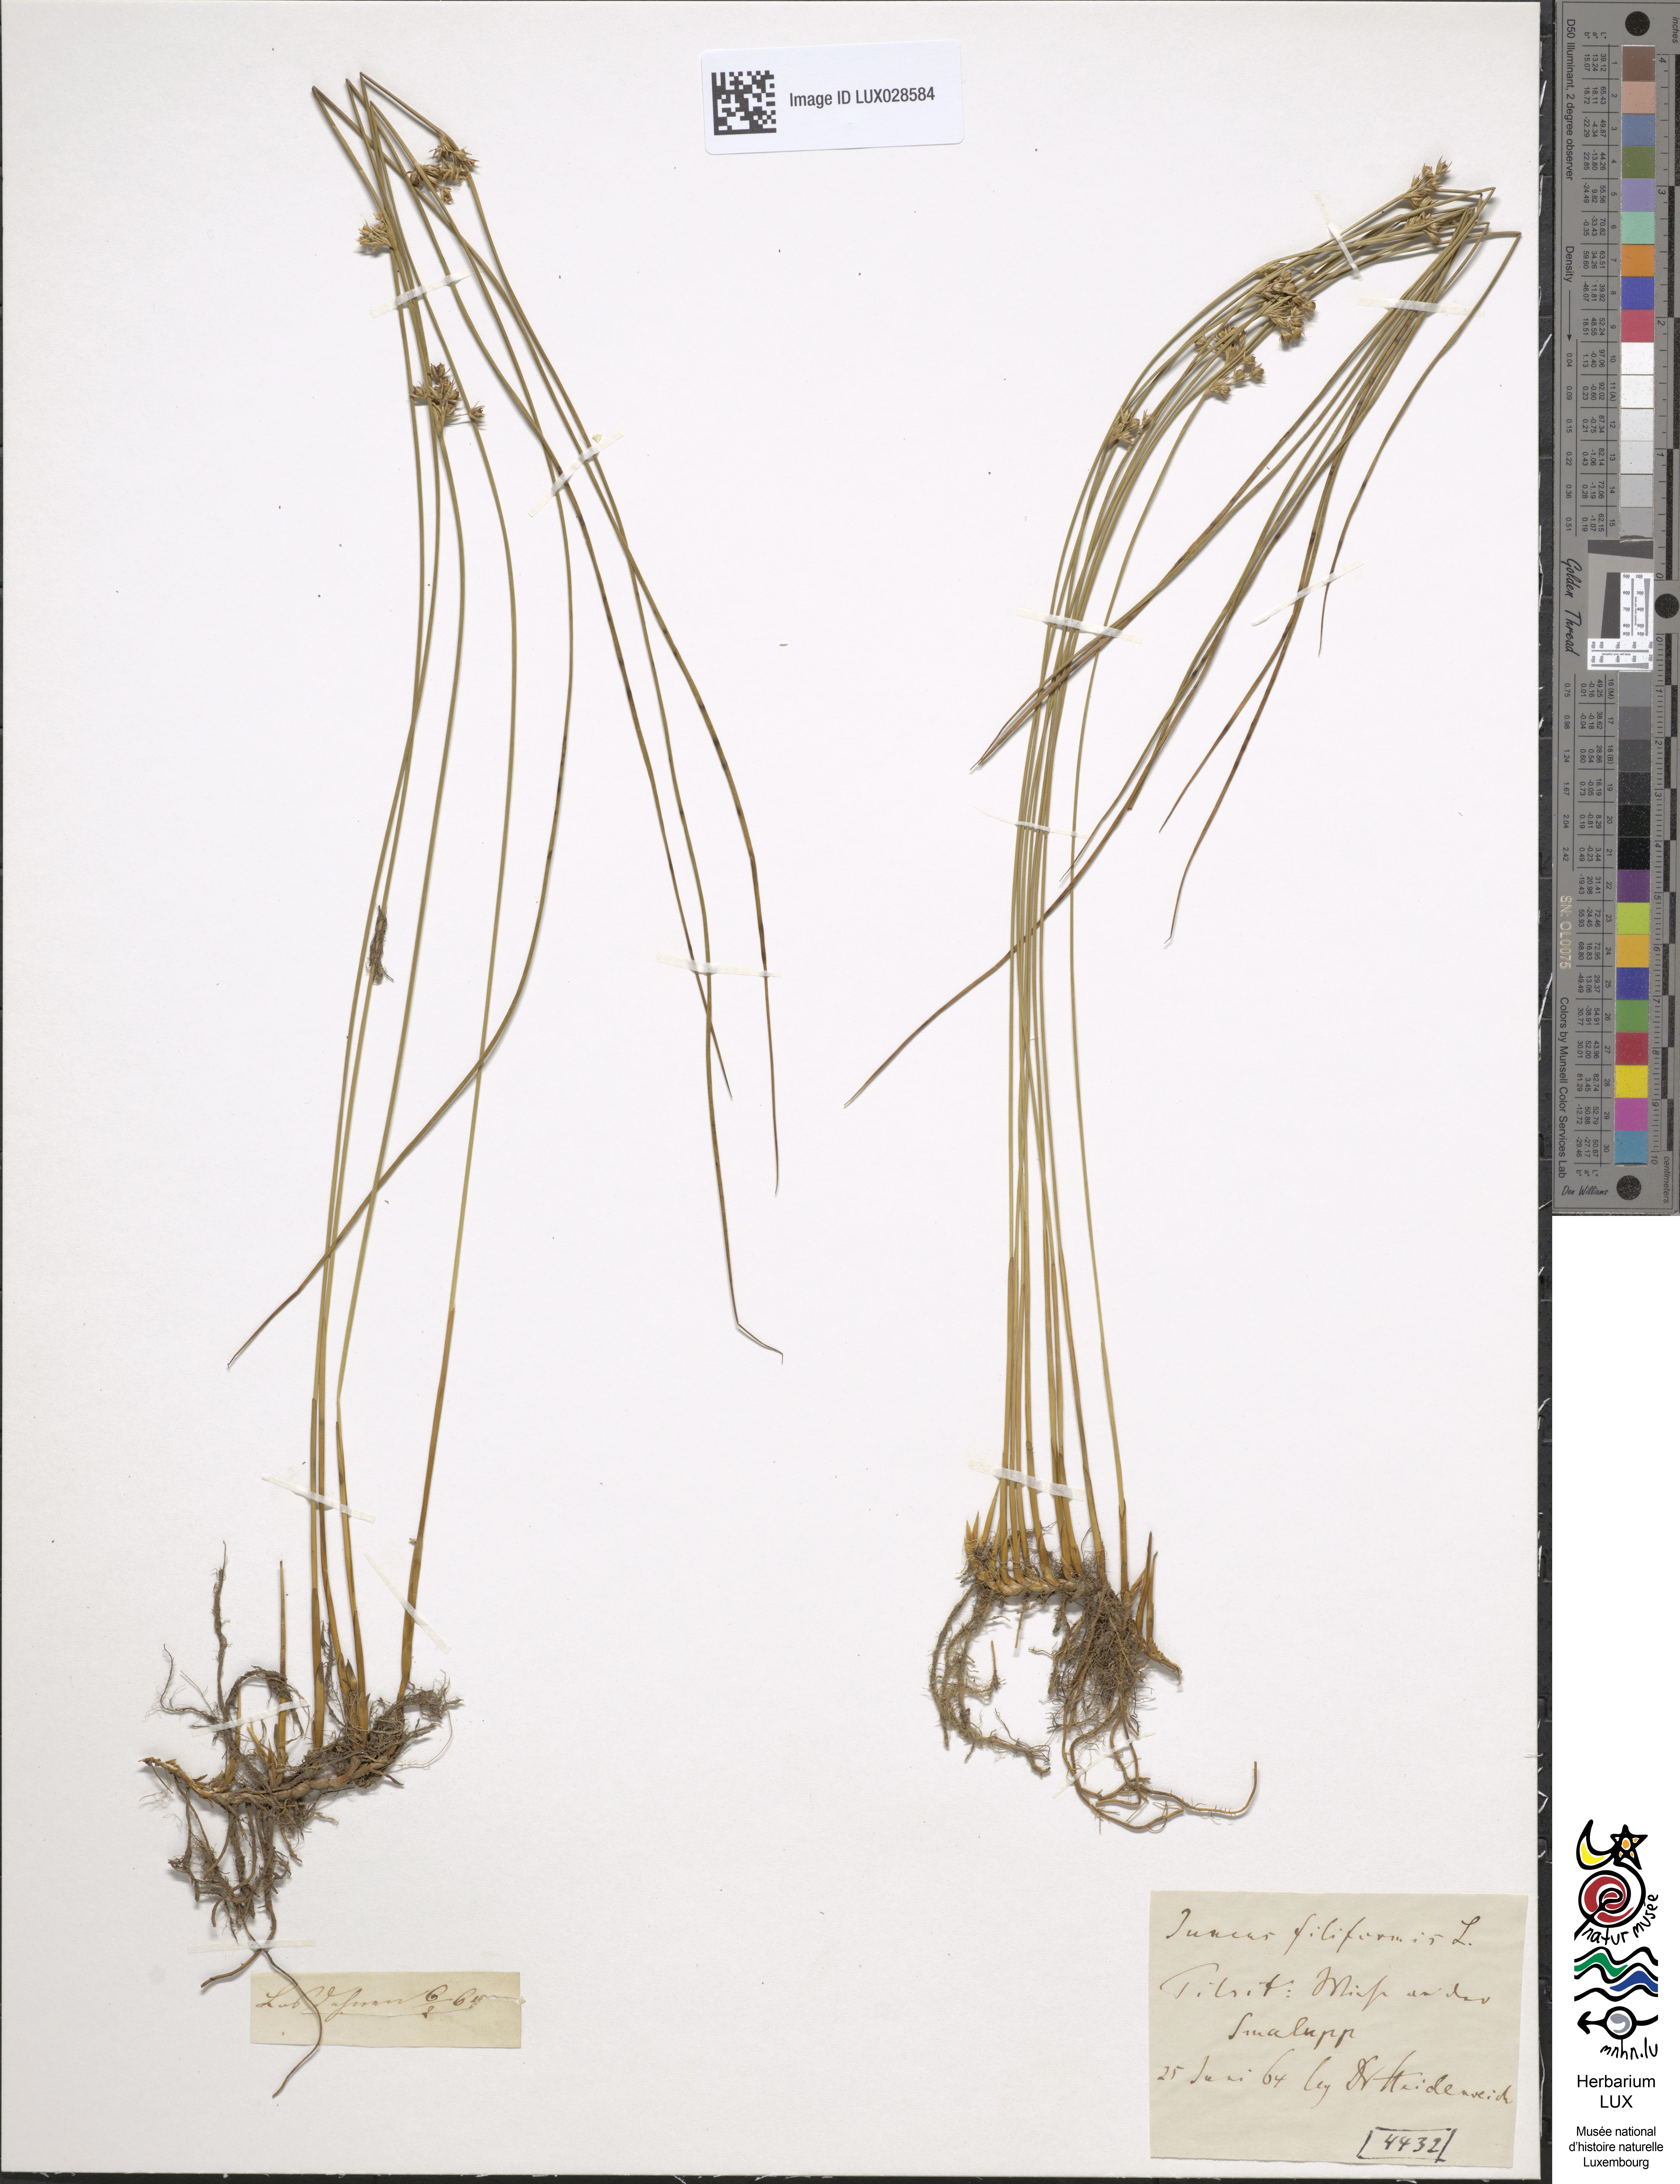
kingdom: Plantae
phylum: Tracheophyta
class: Liliopsida
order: Poales
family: Juncaceae
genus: Juncus
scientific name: Juncus filiformis
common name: Thread rush
